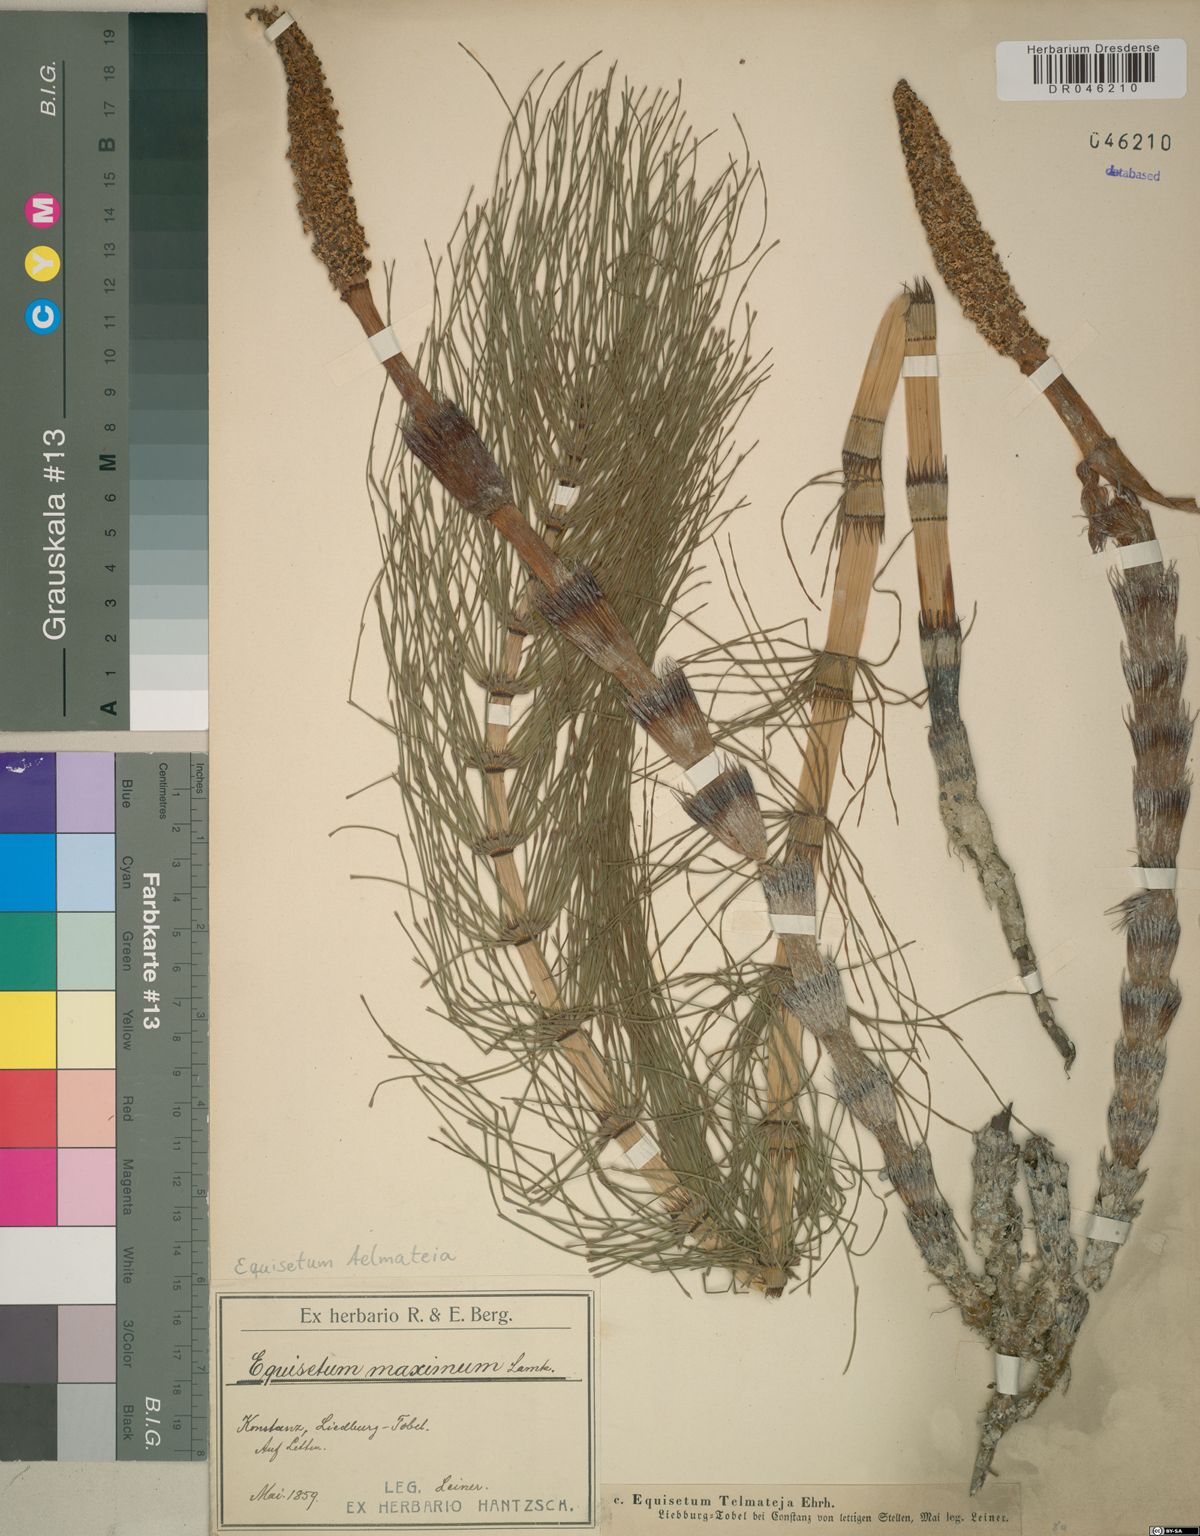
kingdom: Plantae
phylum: Tracheophyta
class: Polypodiopsida
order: Equisetales
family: Equisetaceae
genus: Equisetum
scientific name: Equisetum telmateia
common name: Great horsetail
